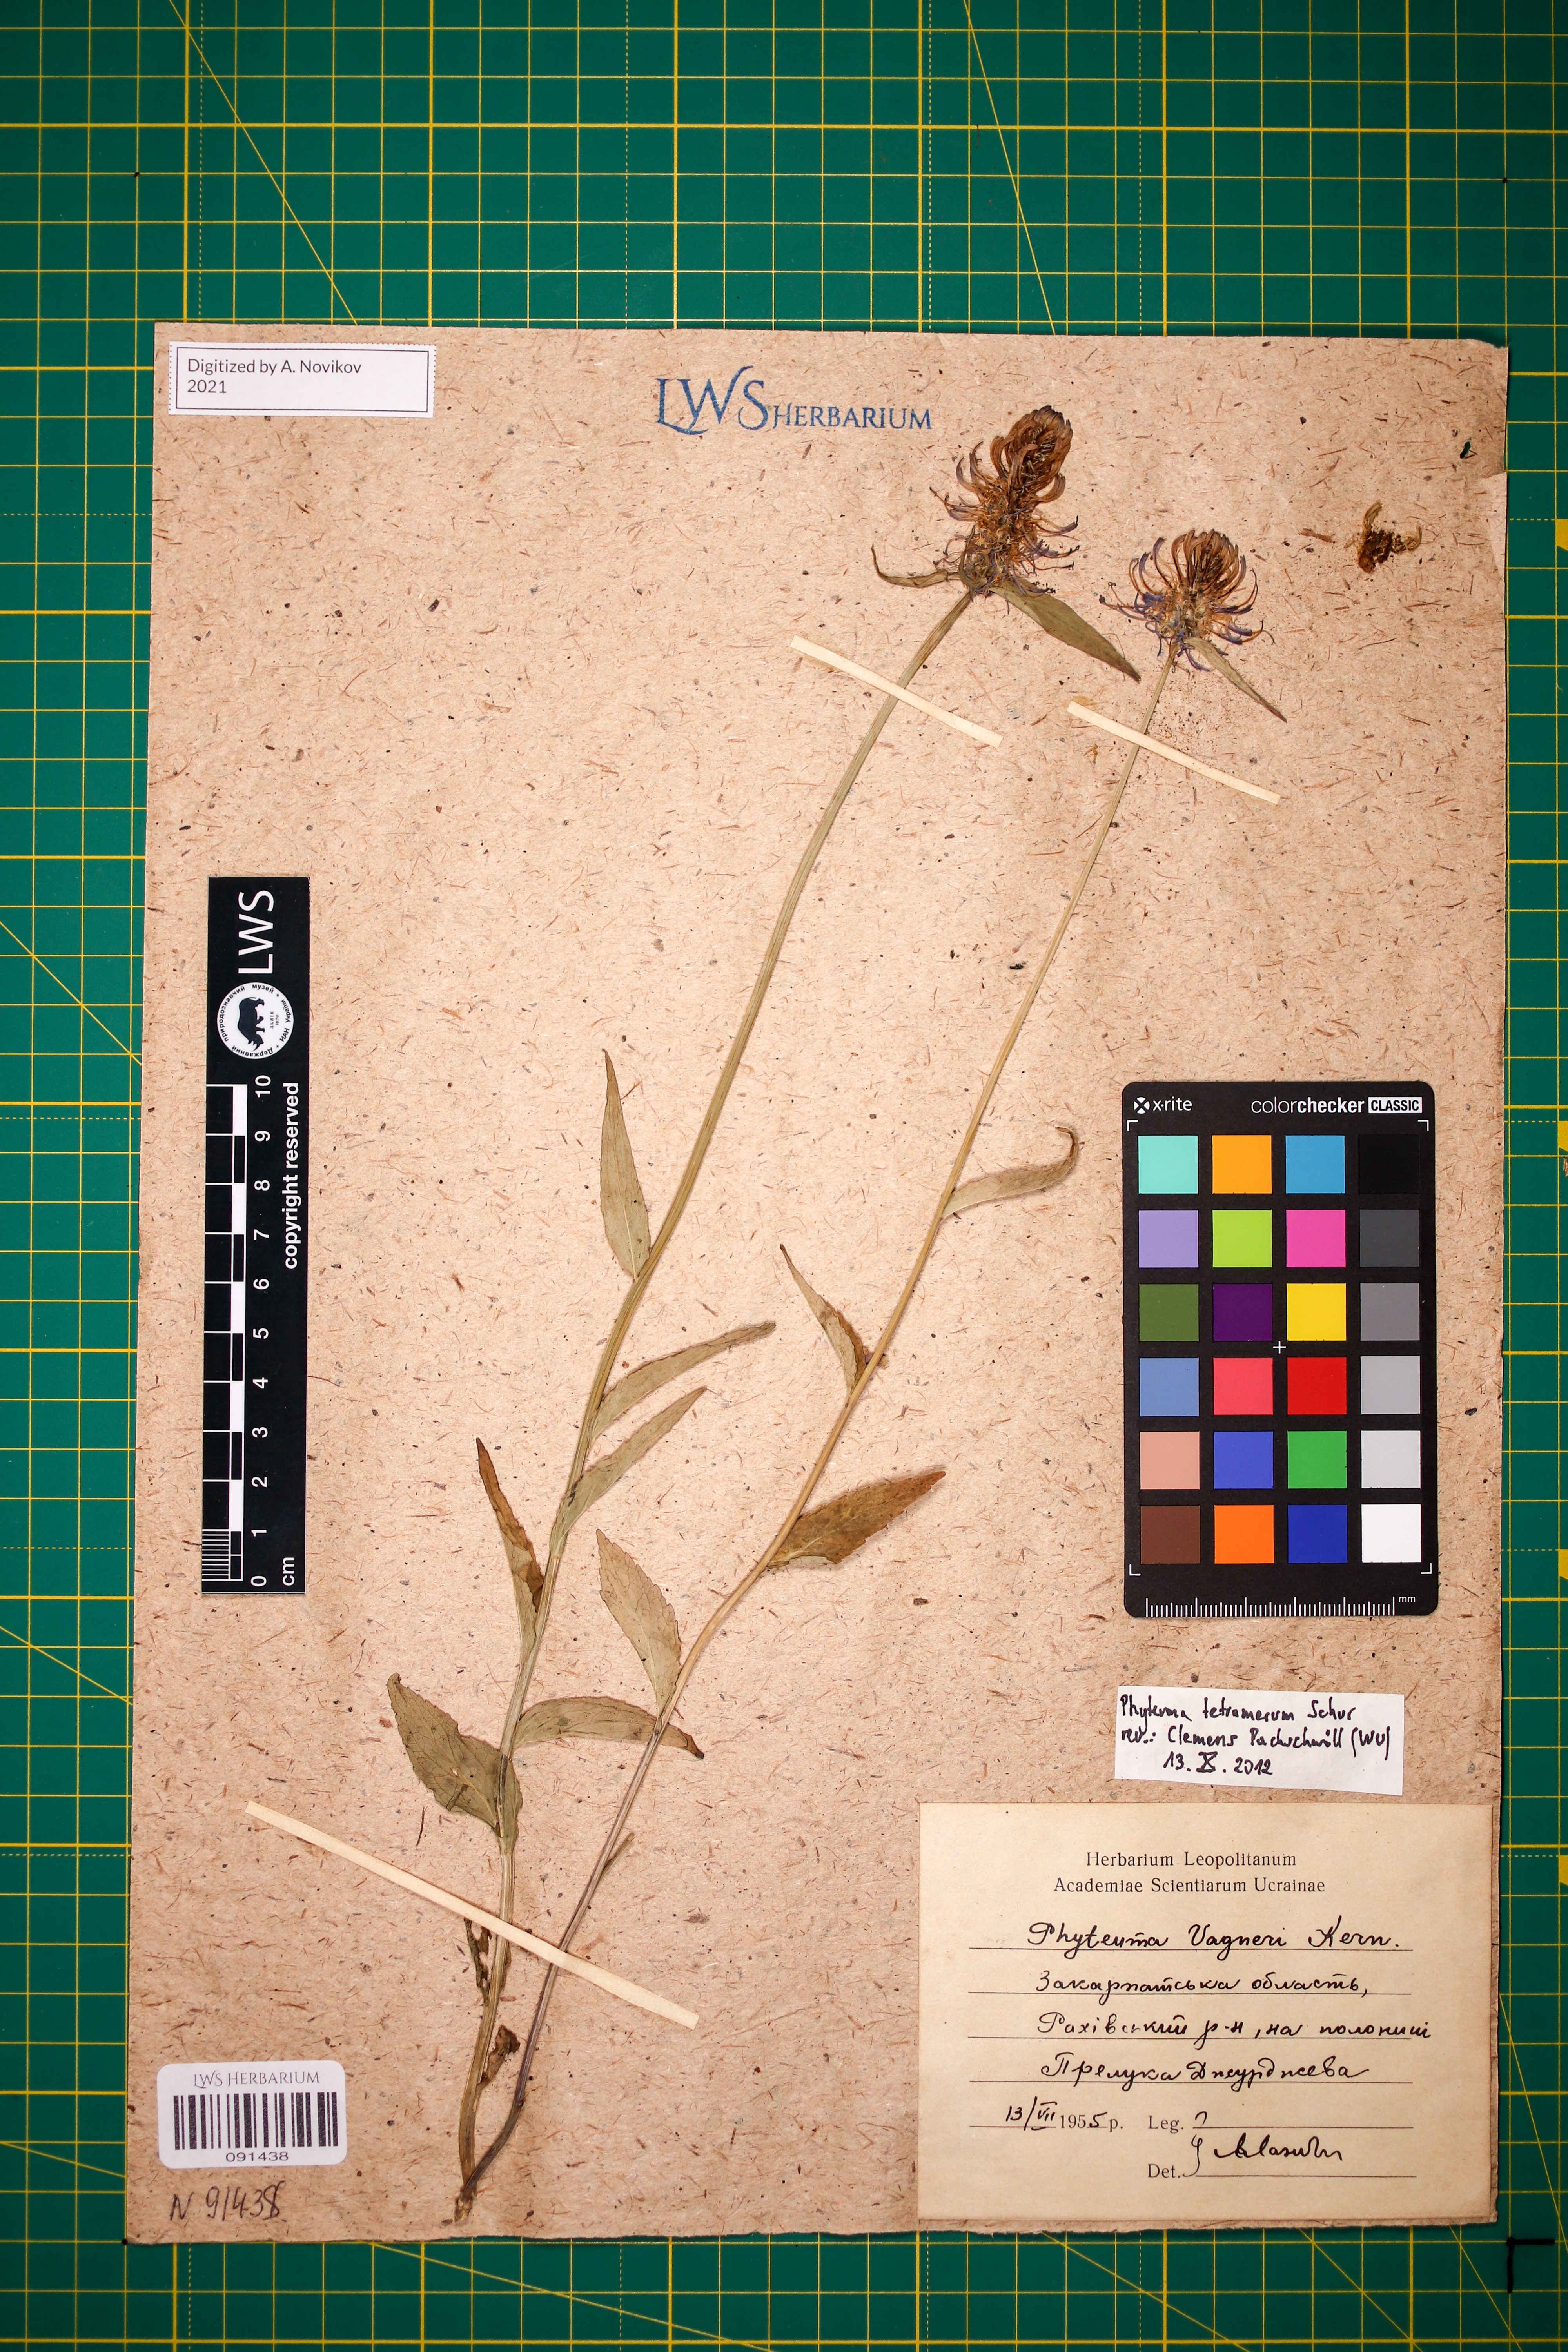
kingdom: Plantae
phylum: Tracheophyta
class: Magnoliopsida
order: Asterales
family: Campanulaceae
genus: Phyteuma
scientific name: Phyteuma tetramerum
